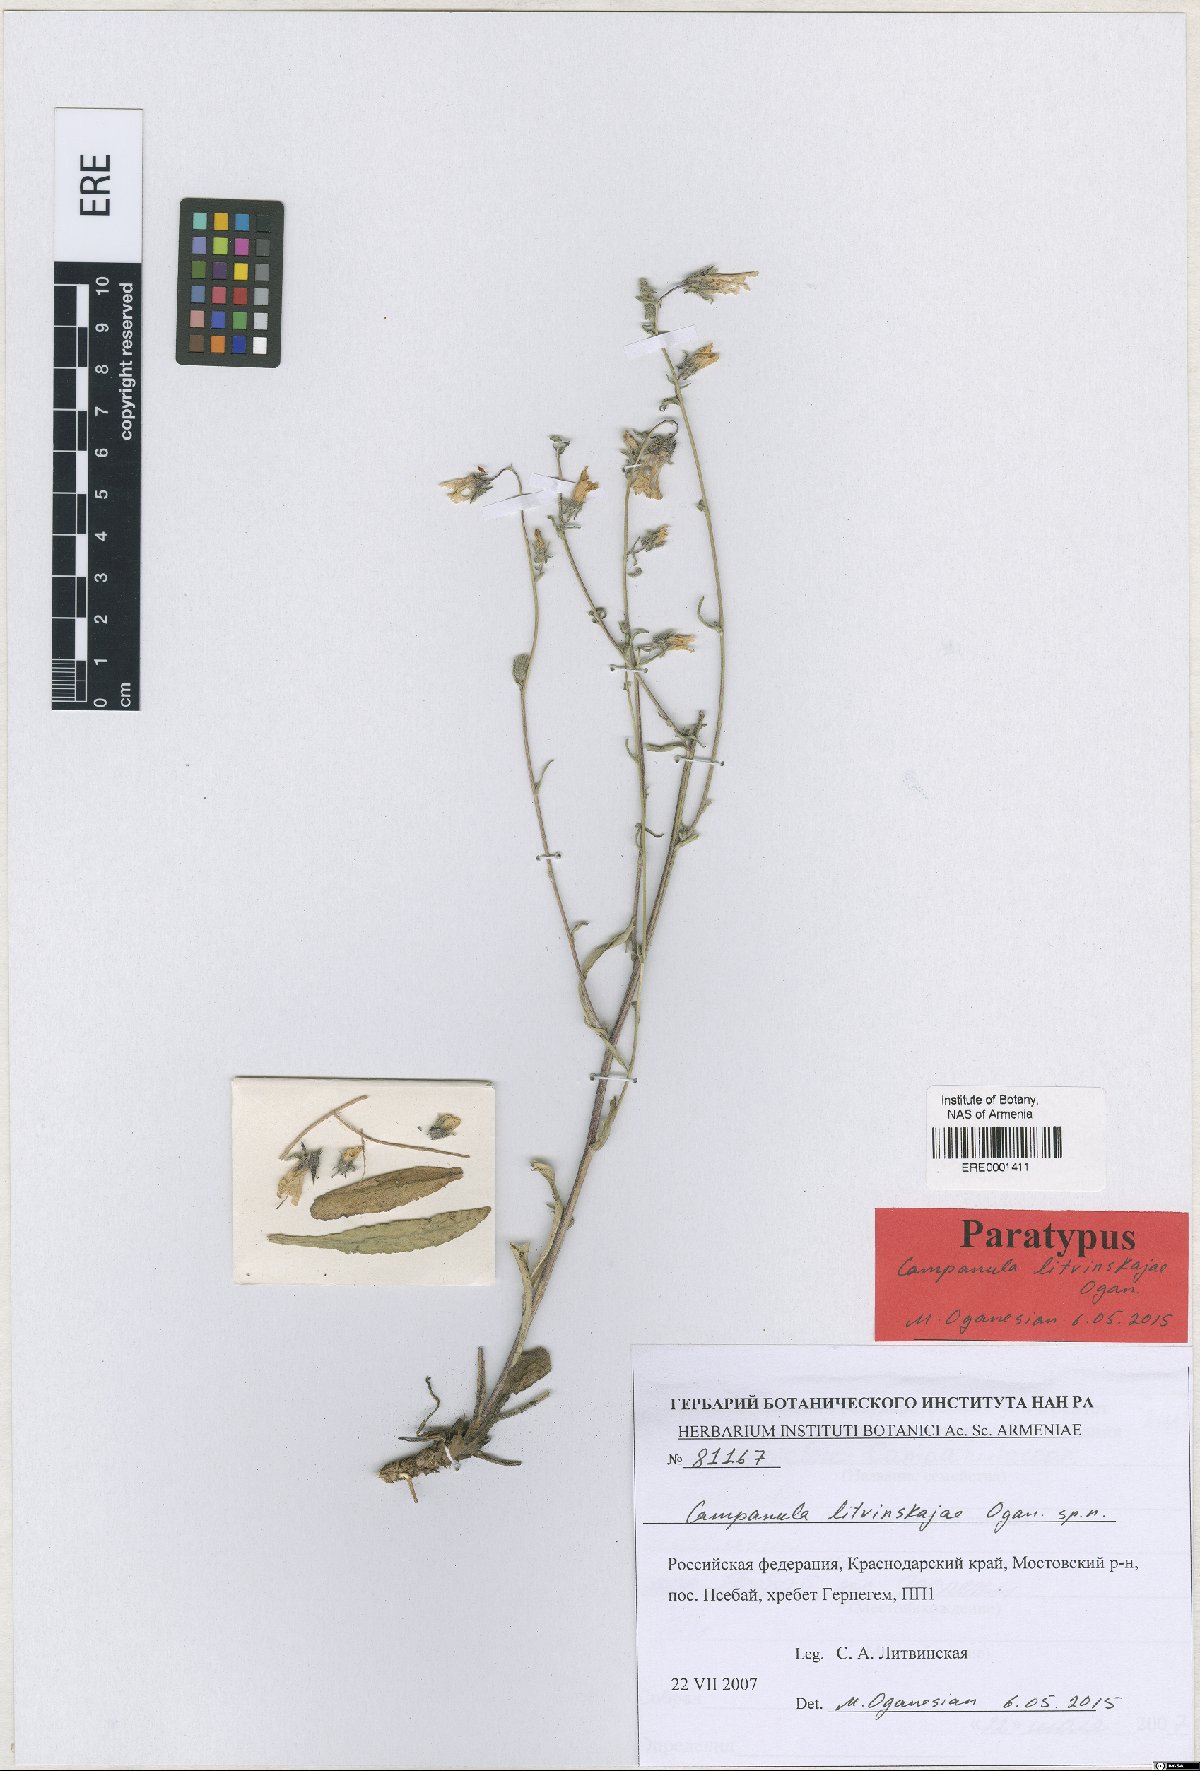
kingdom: Plantae
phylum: Tracheophyta
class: Magnoliopsida
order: Asterales
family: Campanulaceae
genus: Campanula
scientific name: Campanula litvinskajae
